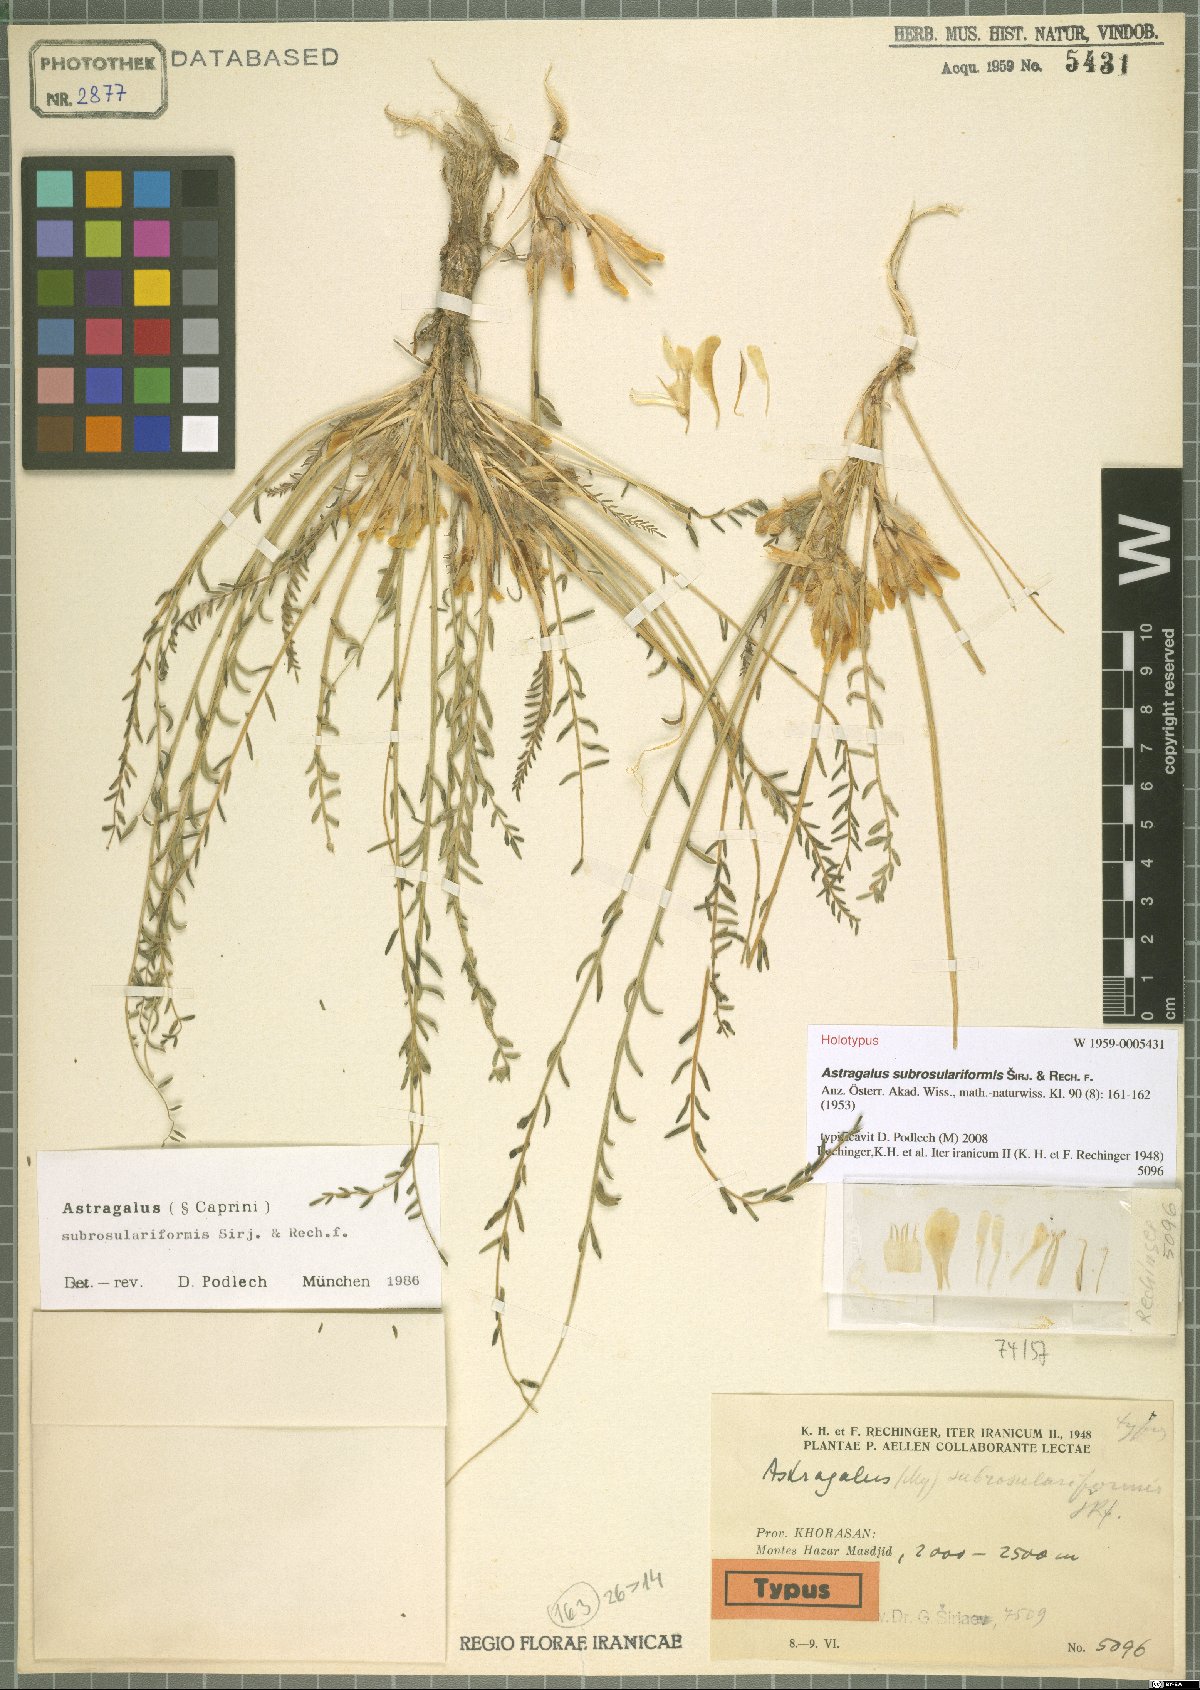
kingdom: Plantae
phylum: Tracheophyta
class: Magnoliopsida
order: Fabales
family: Fabaceae
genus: Astragalus
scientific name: Astragalus subrosulariformis
